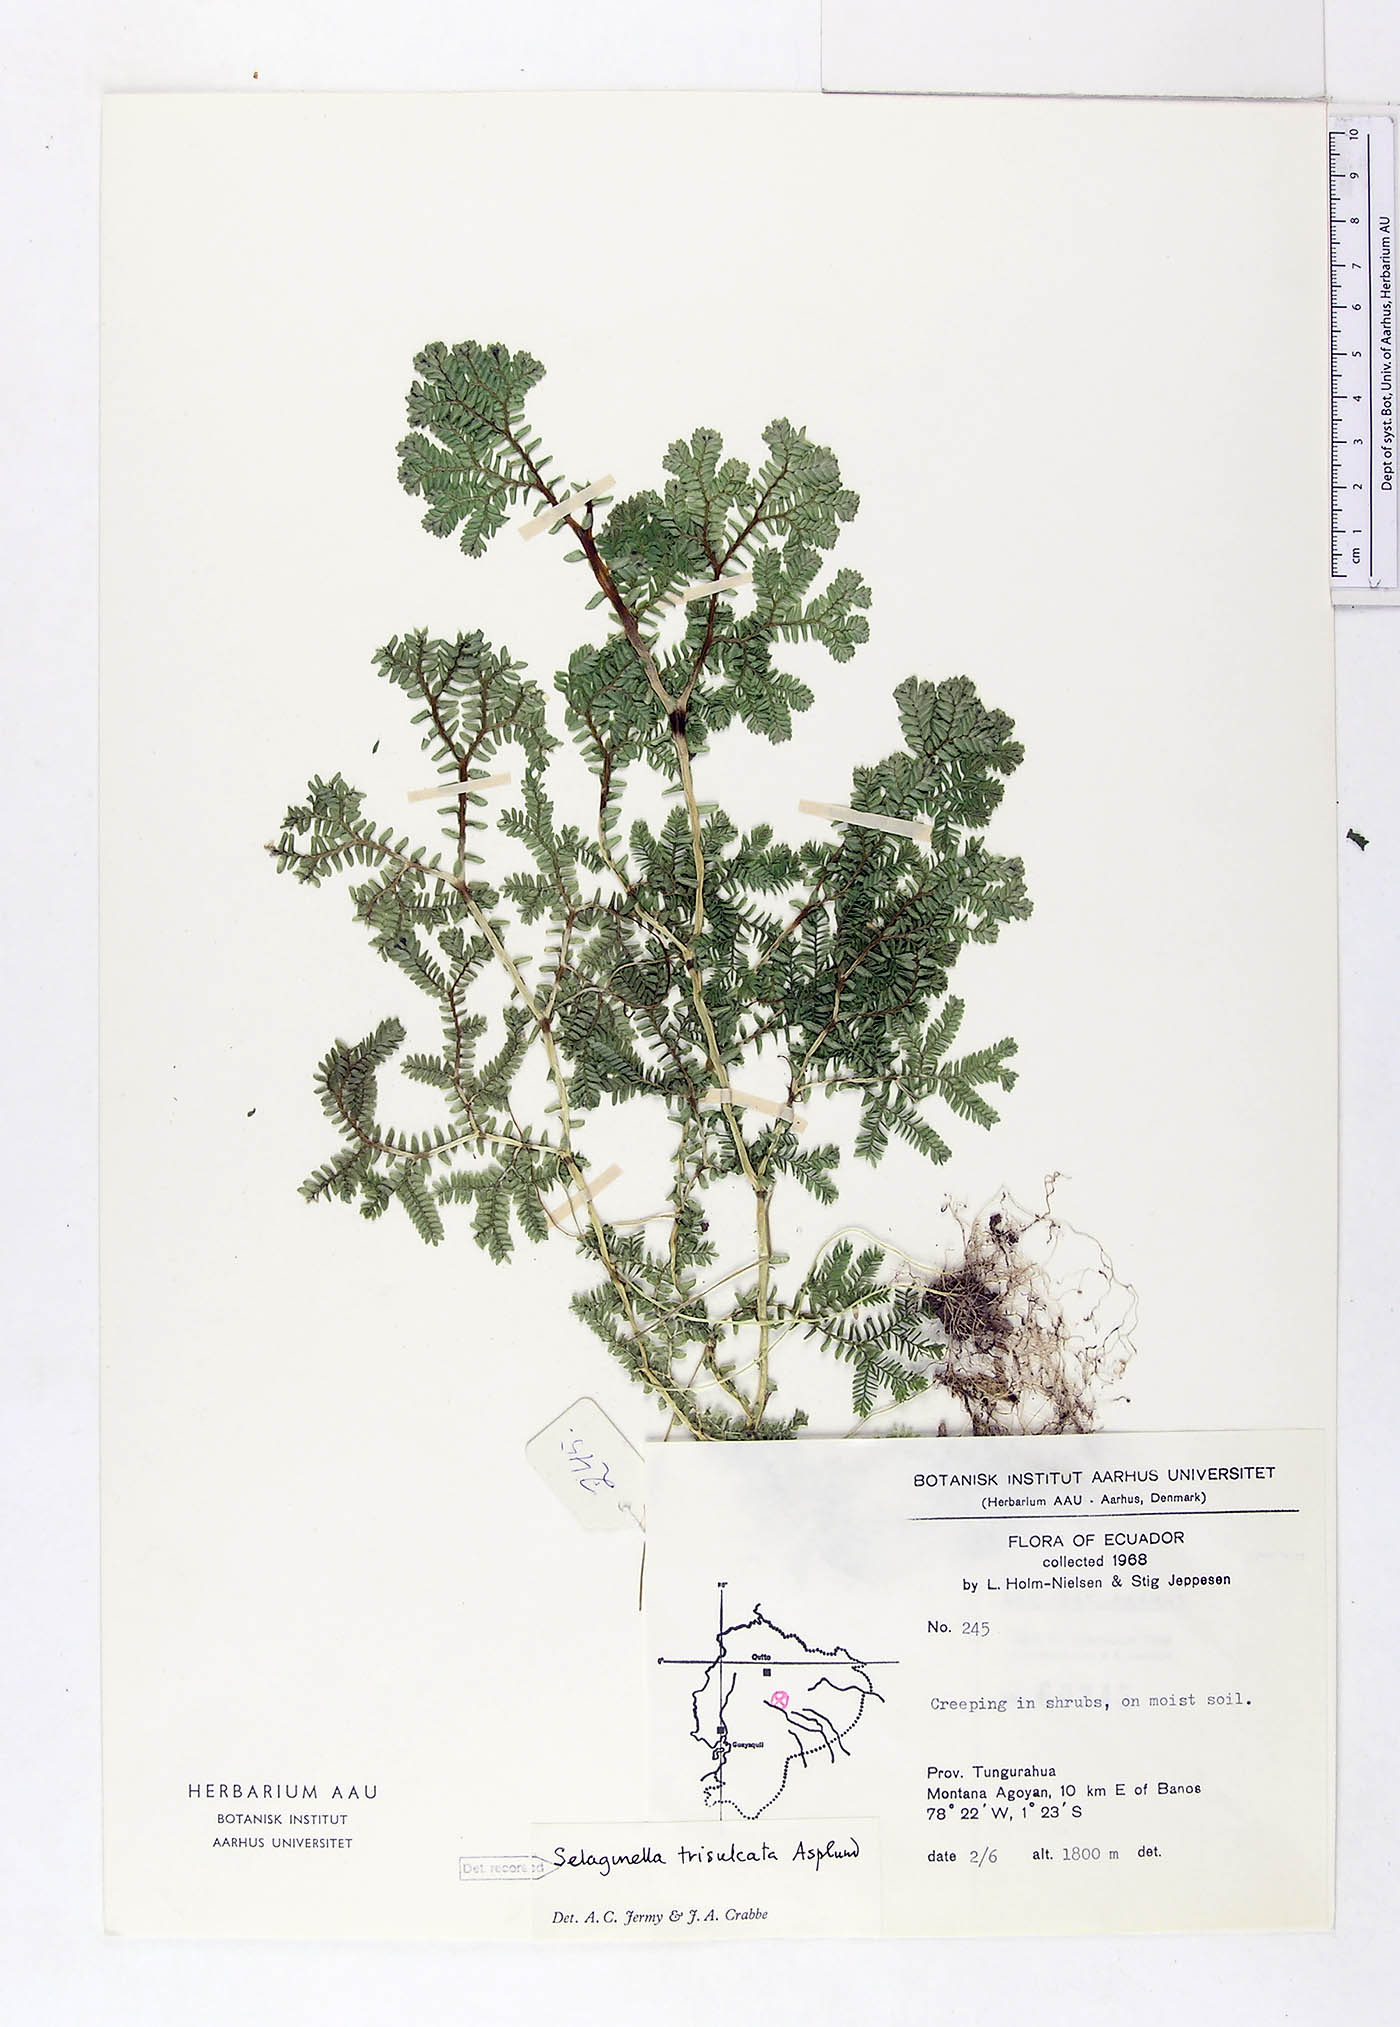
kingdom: Plantae
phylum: Tracheophyta
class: Lycopodiopsida
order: Selaginellales
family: Selaginellaceae
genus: Selaginella
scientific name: Selaginella trisulcata
